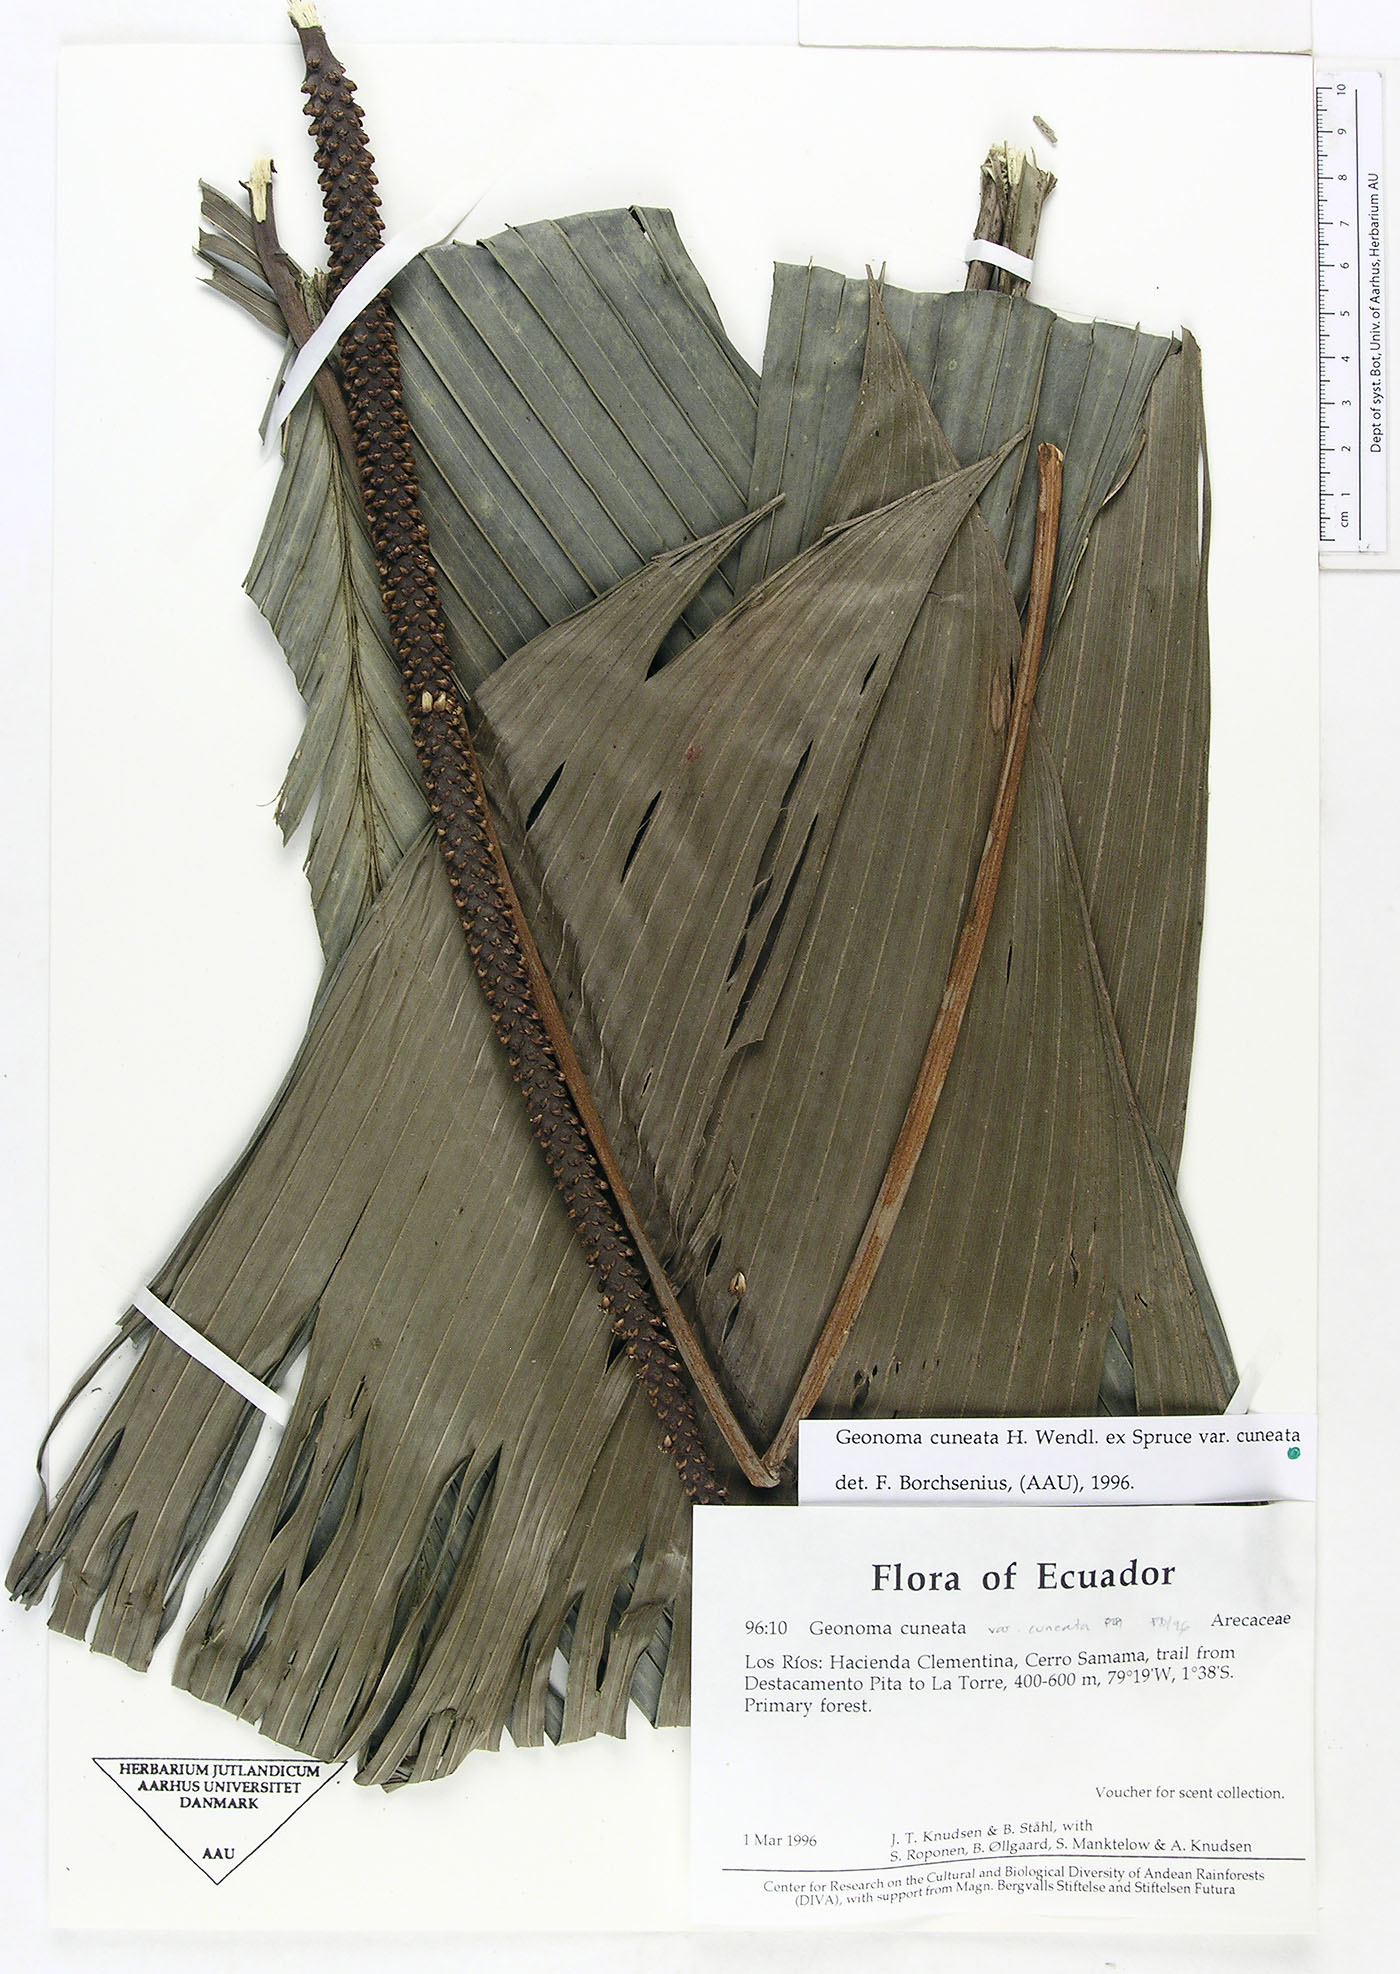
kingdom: Plantae
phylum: Tracheophyta
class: Liliopsida
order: Arecales
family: Arecaceae
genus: Geonoma
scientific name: Geonoma cuneata
